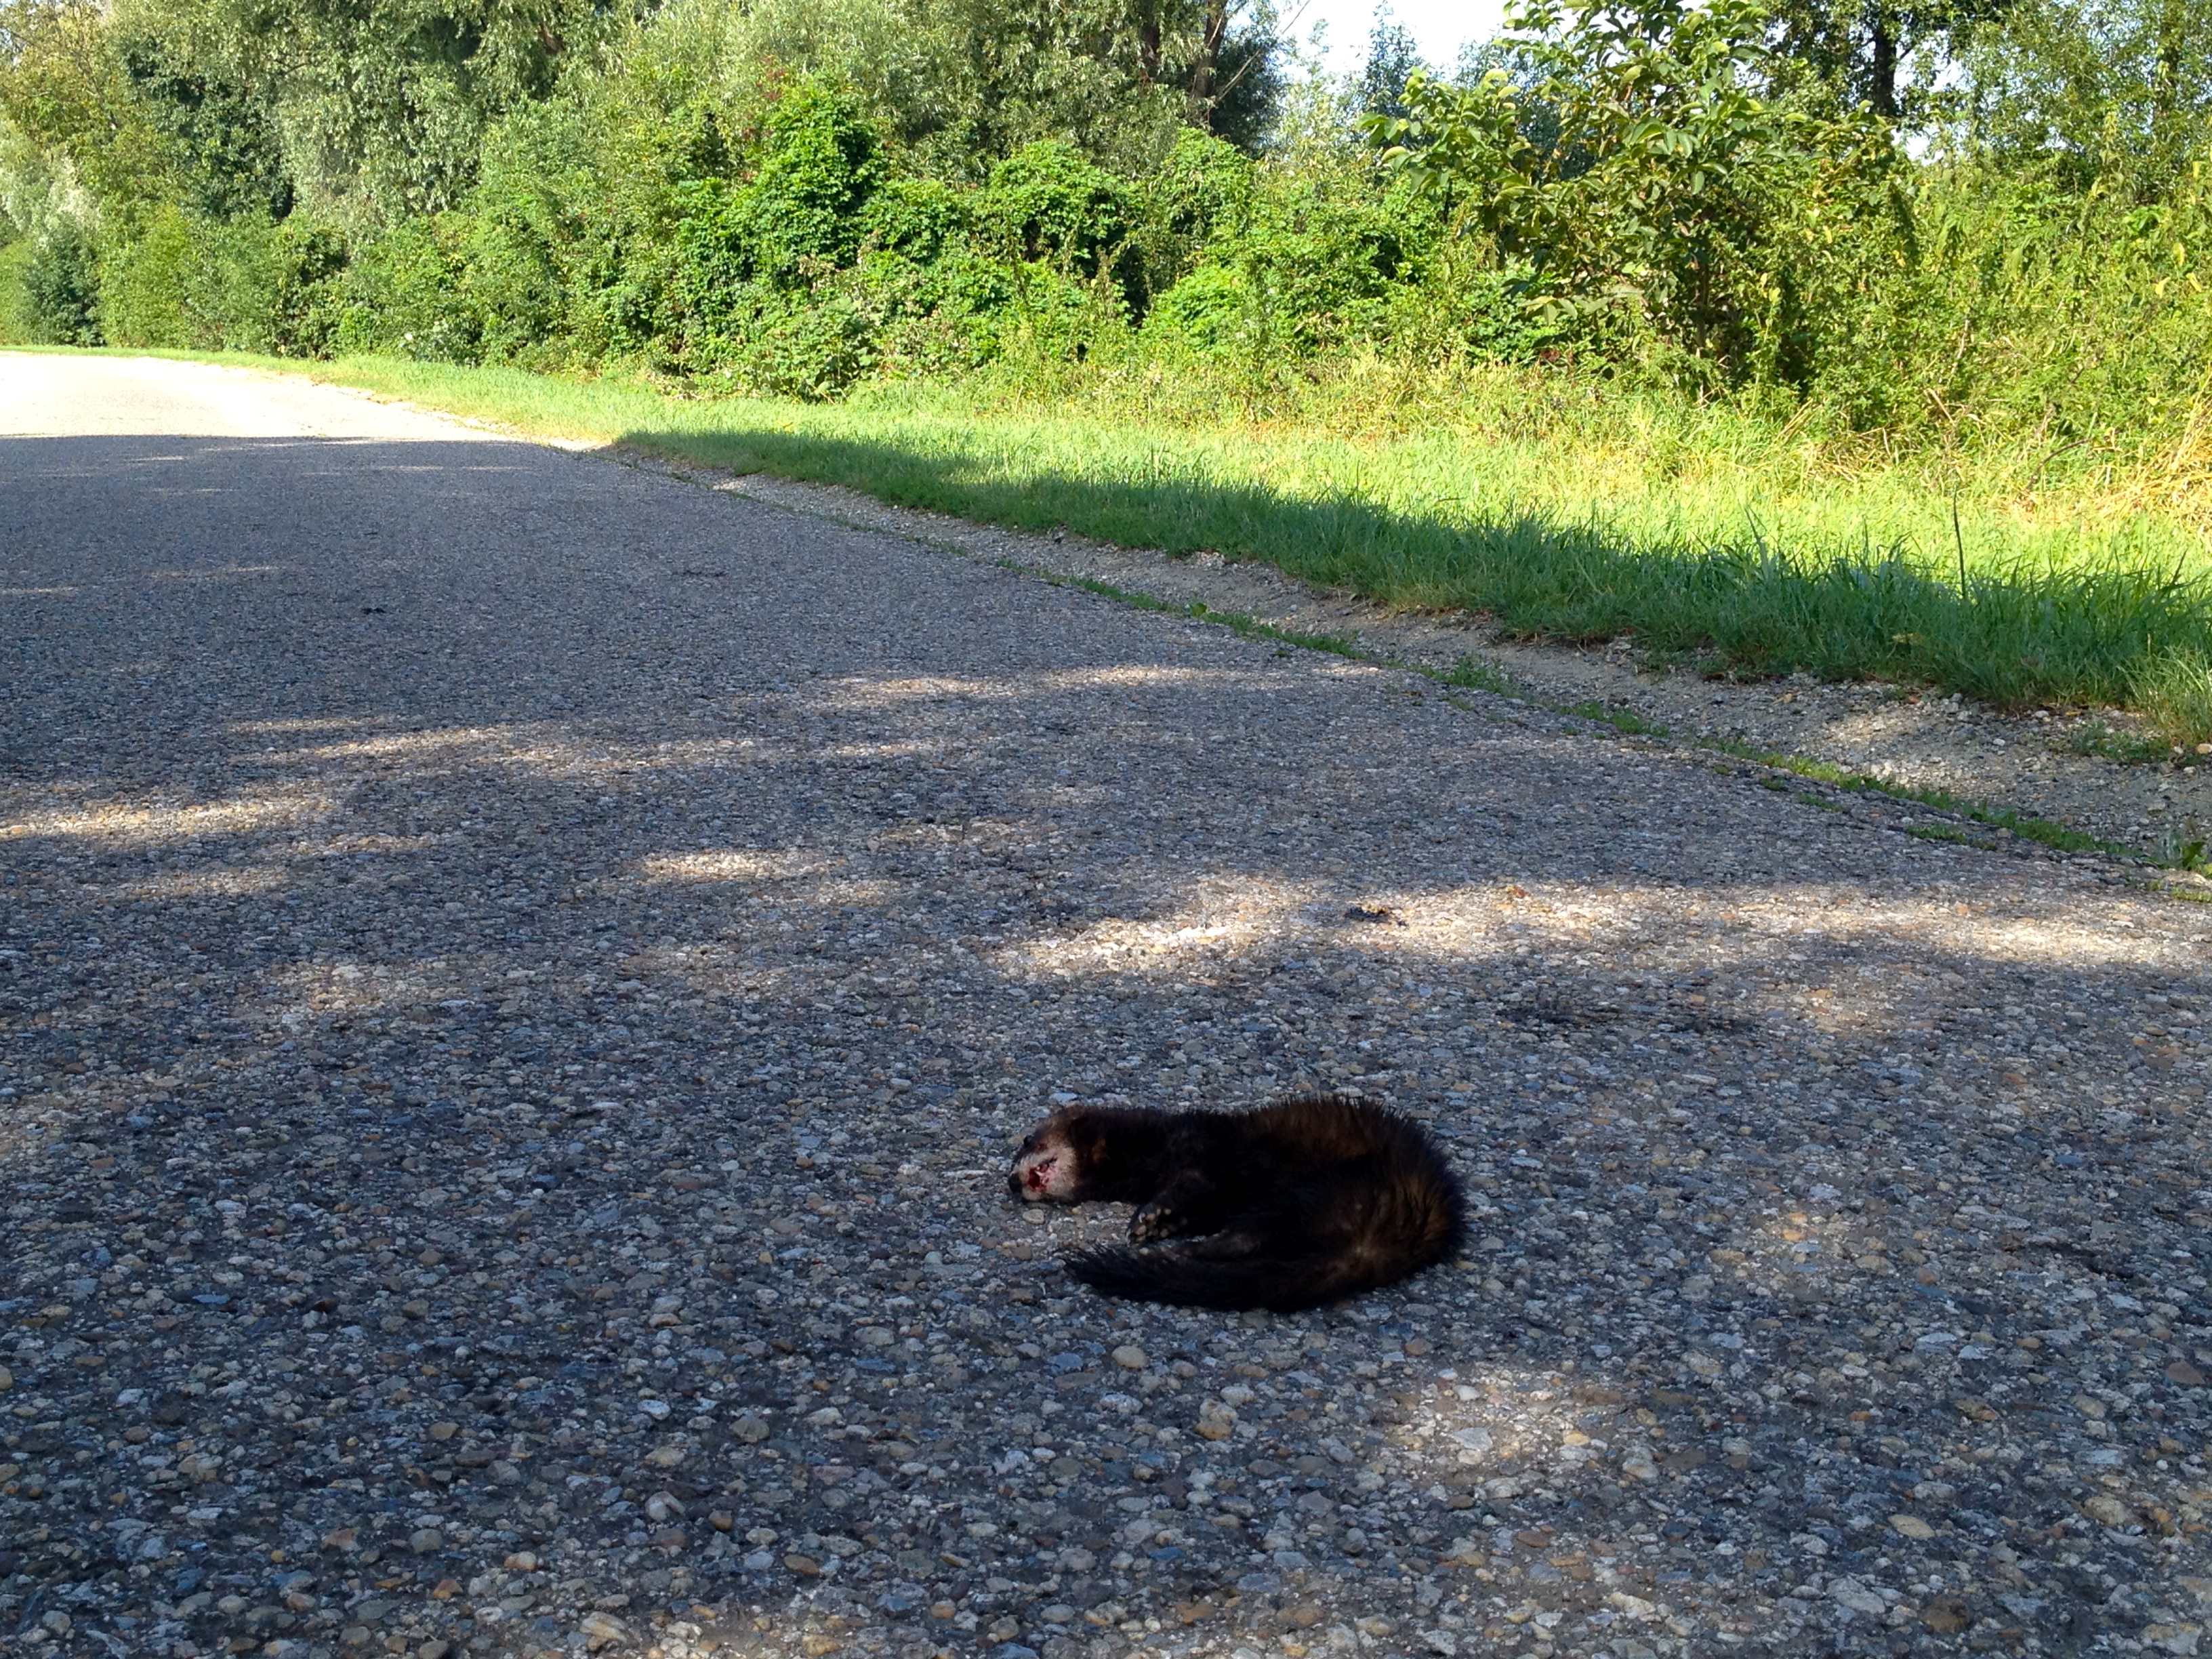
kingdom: Animalia
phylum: Chordata
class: Mammalia
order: Carnivora
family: Mustelidae
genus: Mustela
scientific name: Mustela putorius
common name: European polecat
